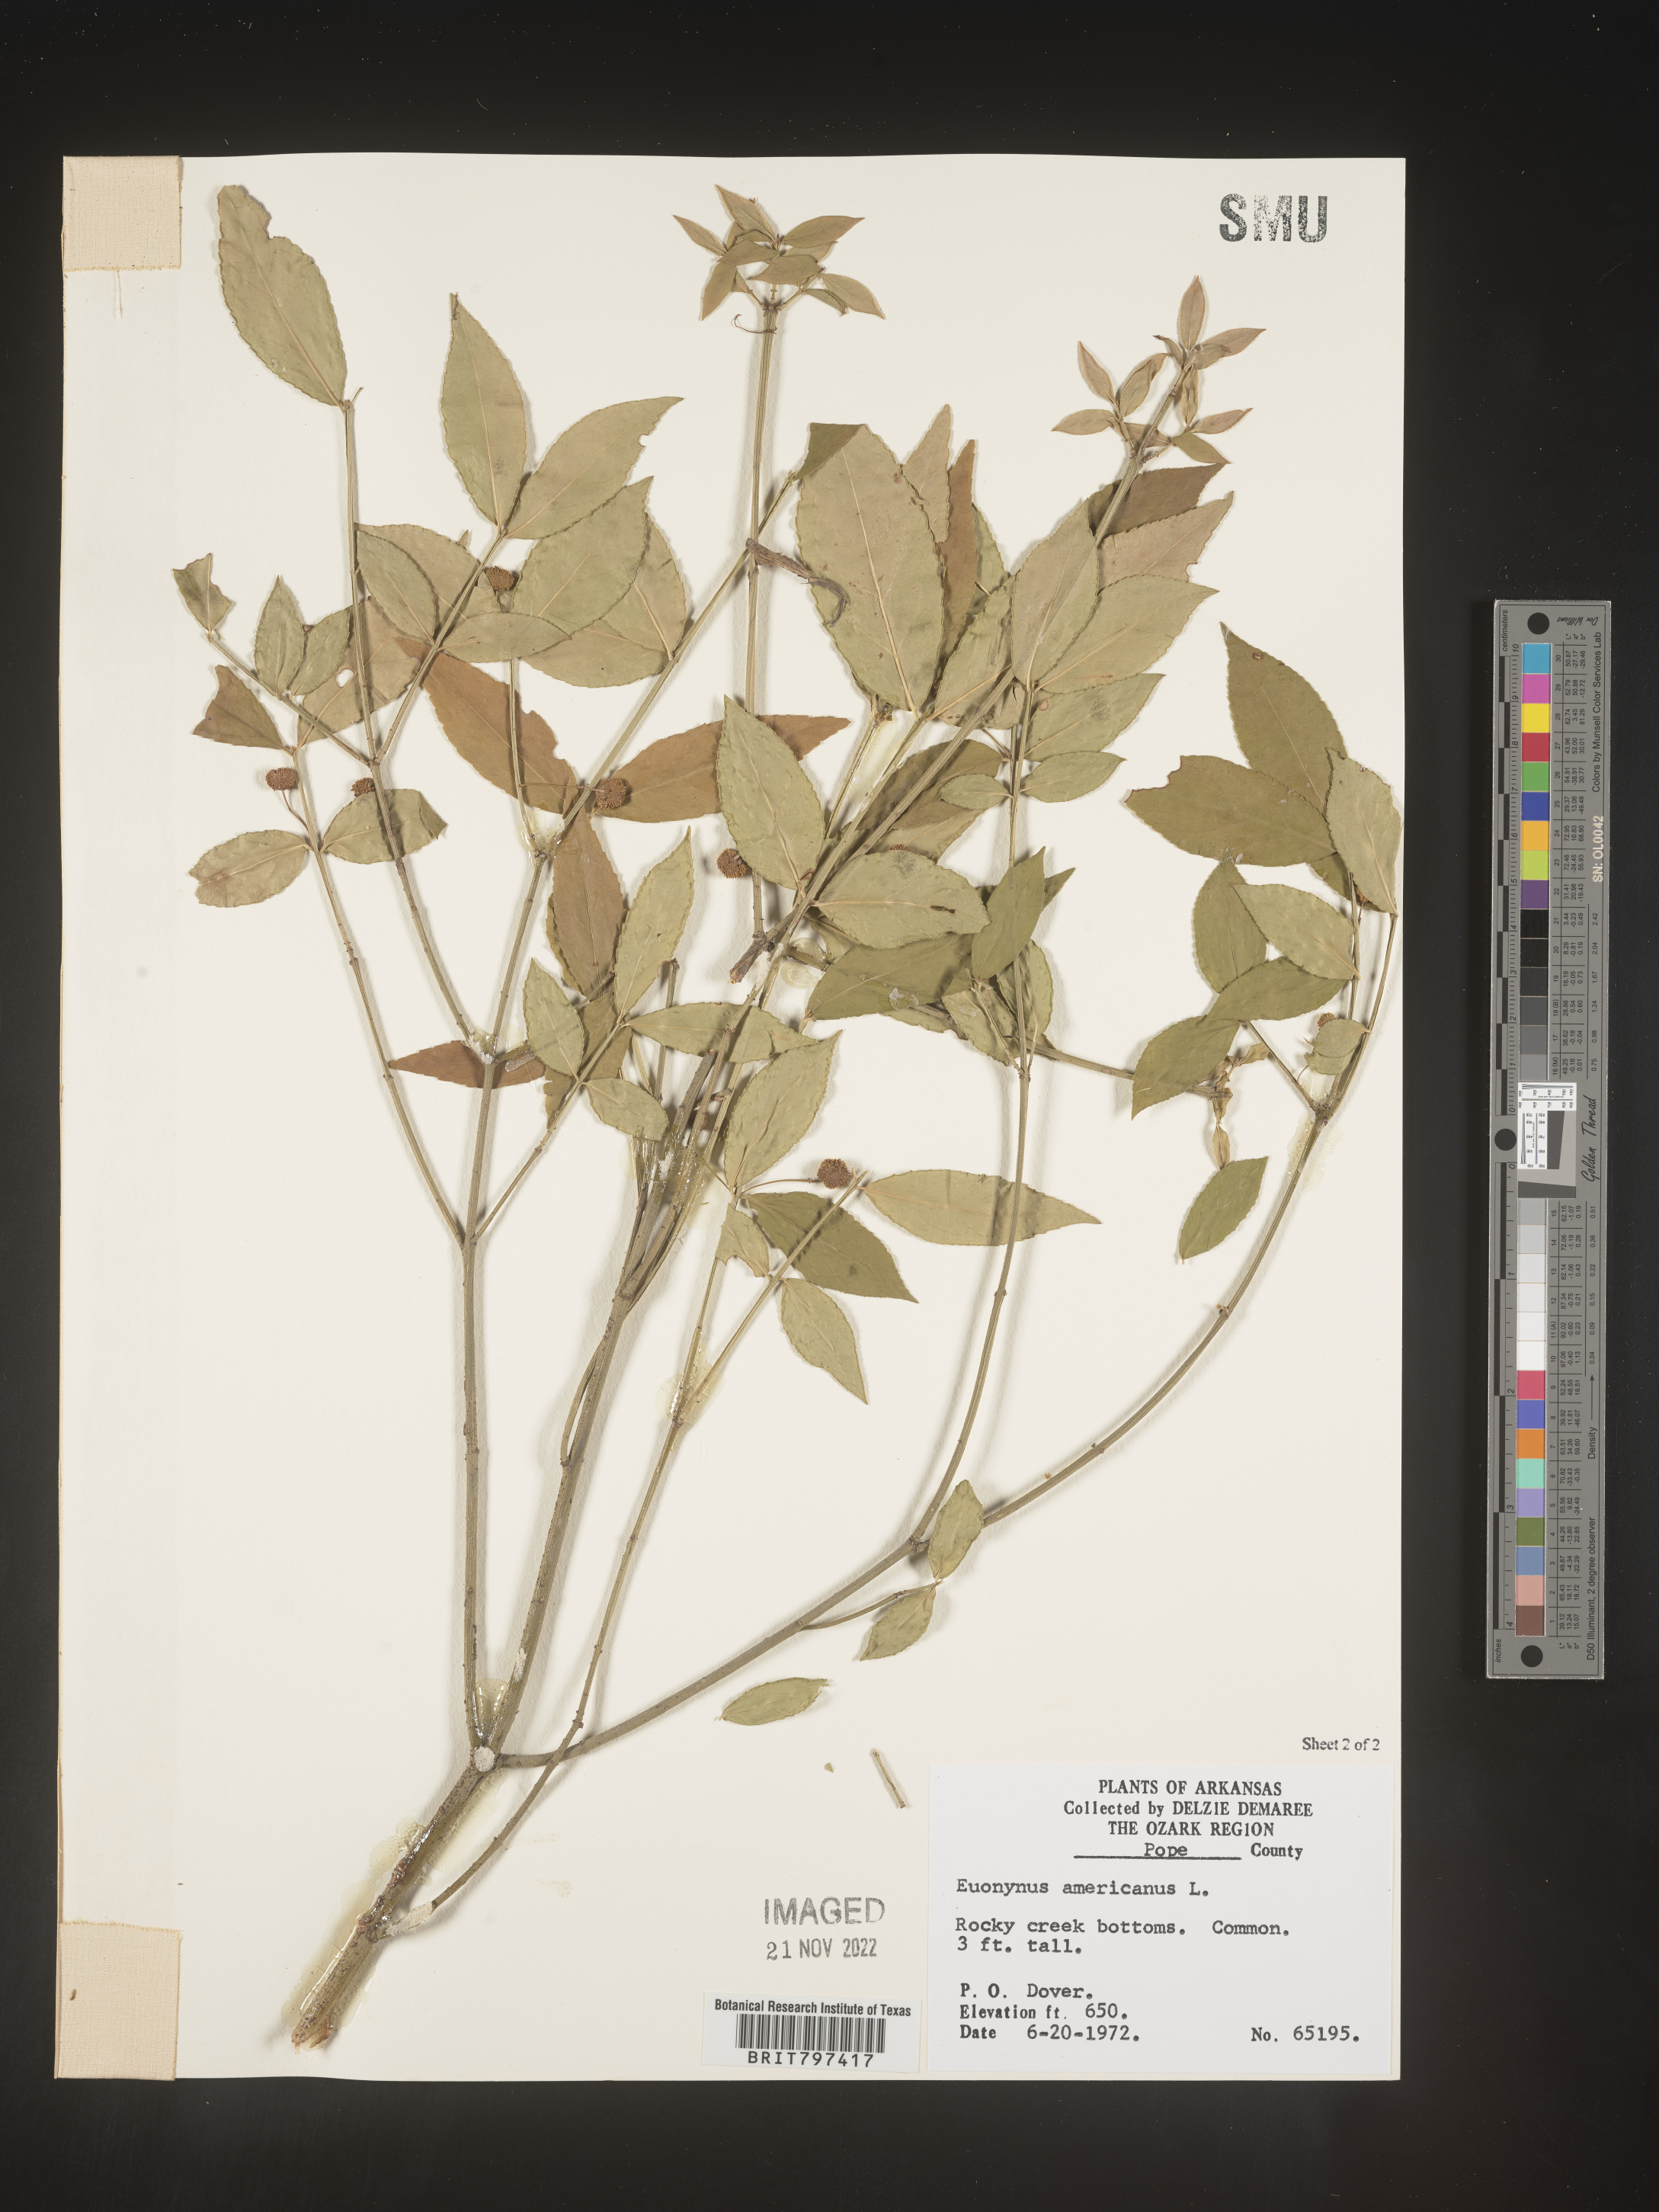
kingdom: Plantae
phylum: Tracheophyta
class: Magnoliopsida
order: Celastrales
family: Celastraceae
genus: Euonymus
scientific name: Euonymus americanus
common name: Bursting-heart
